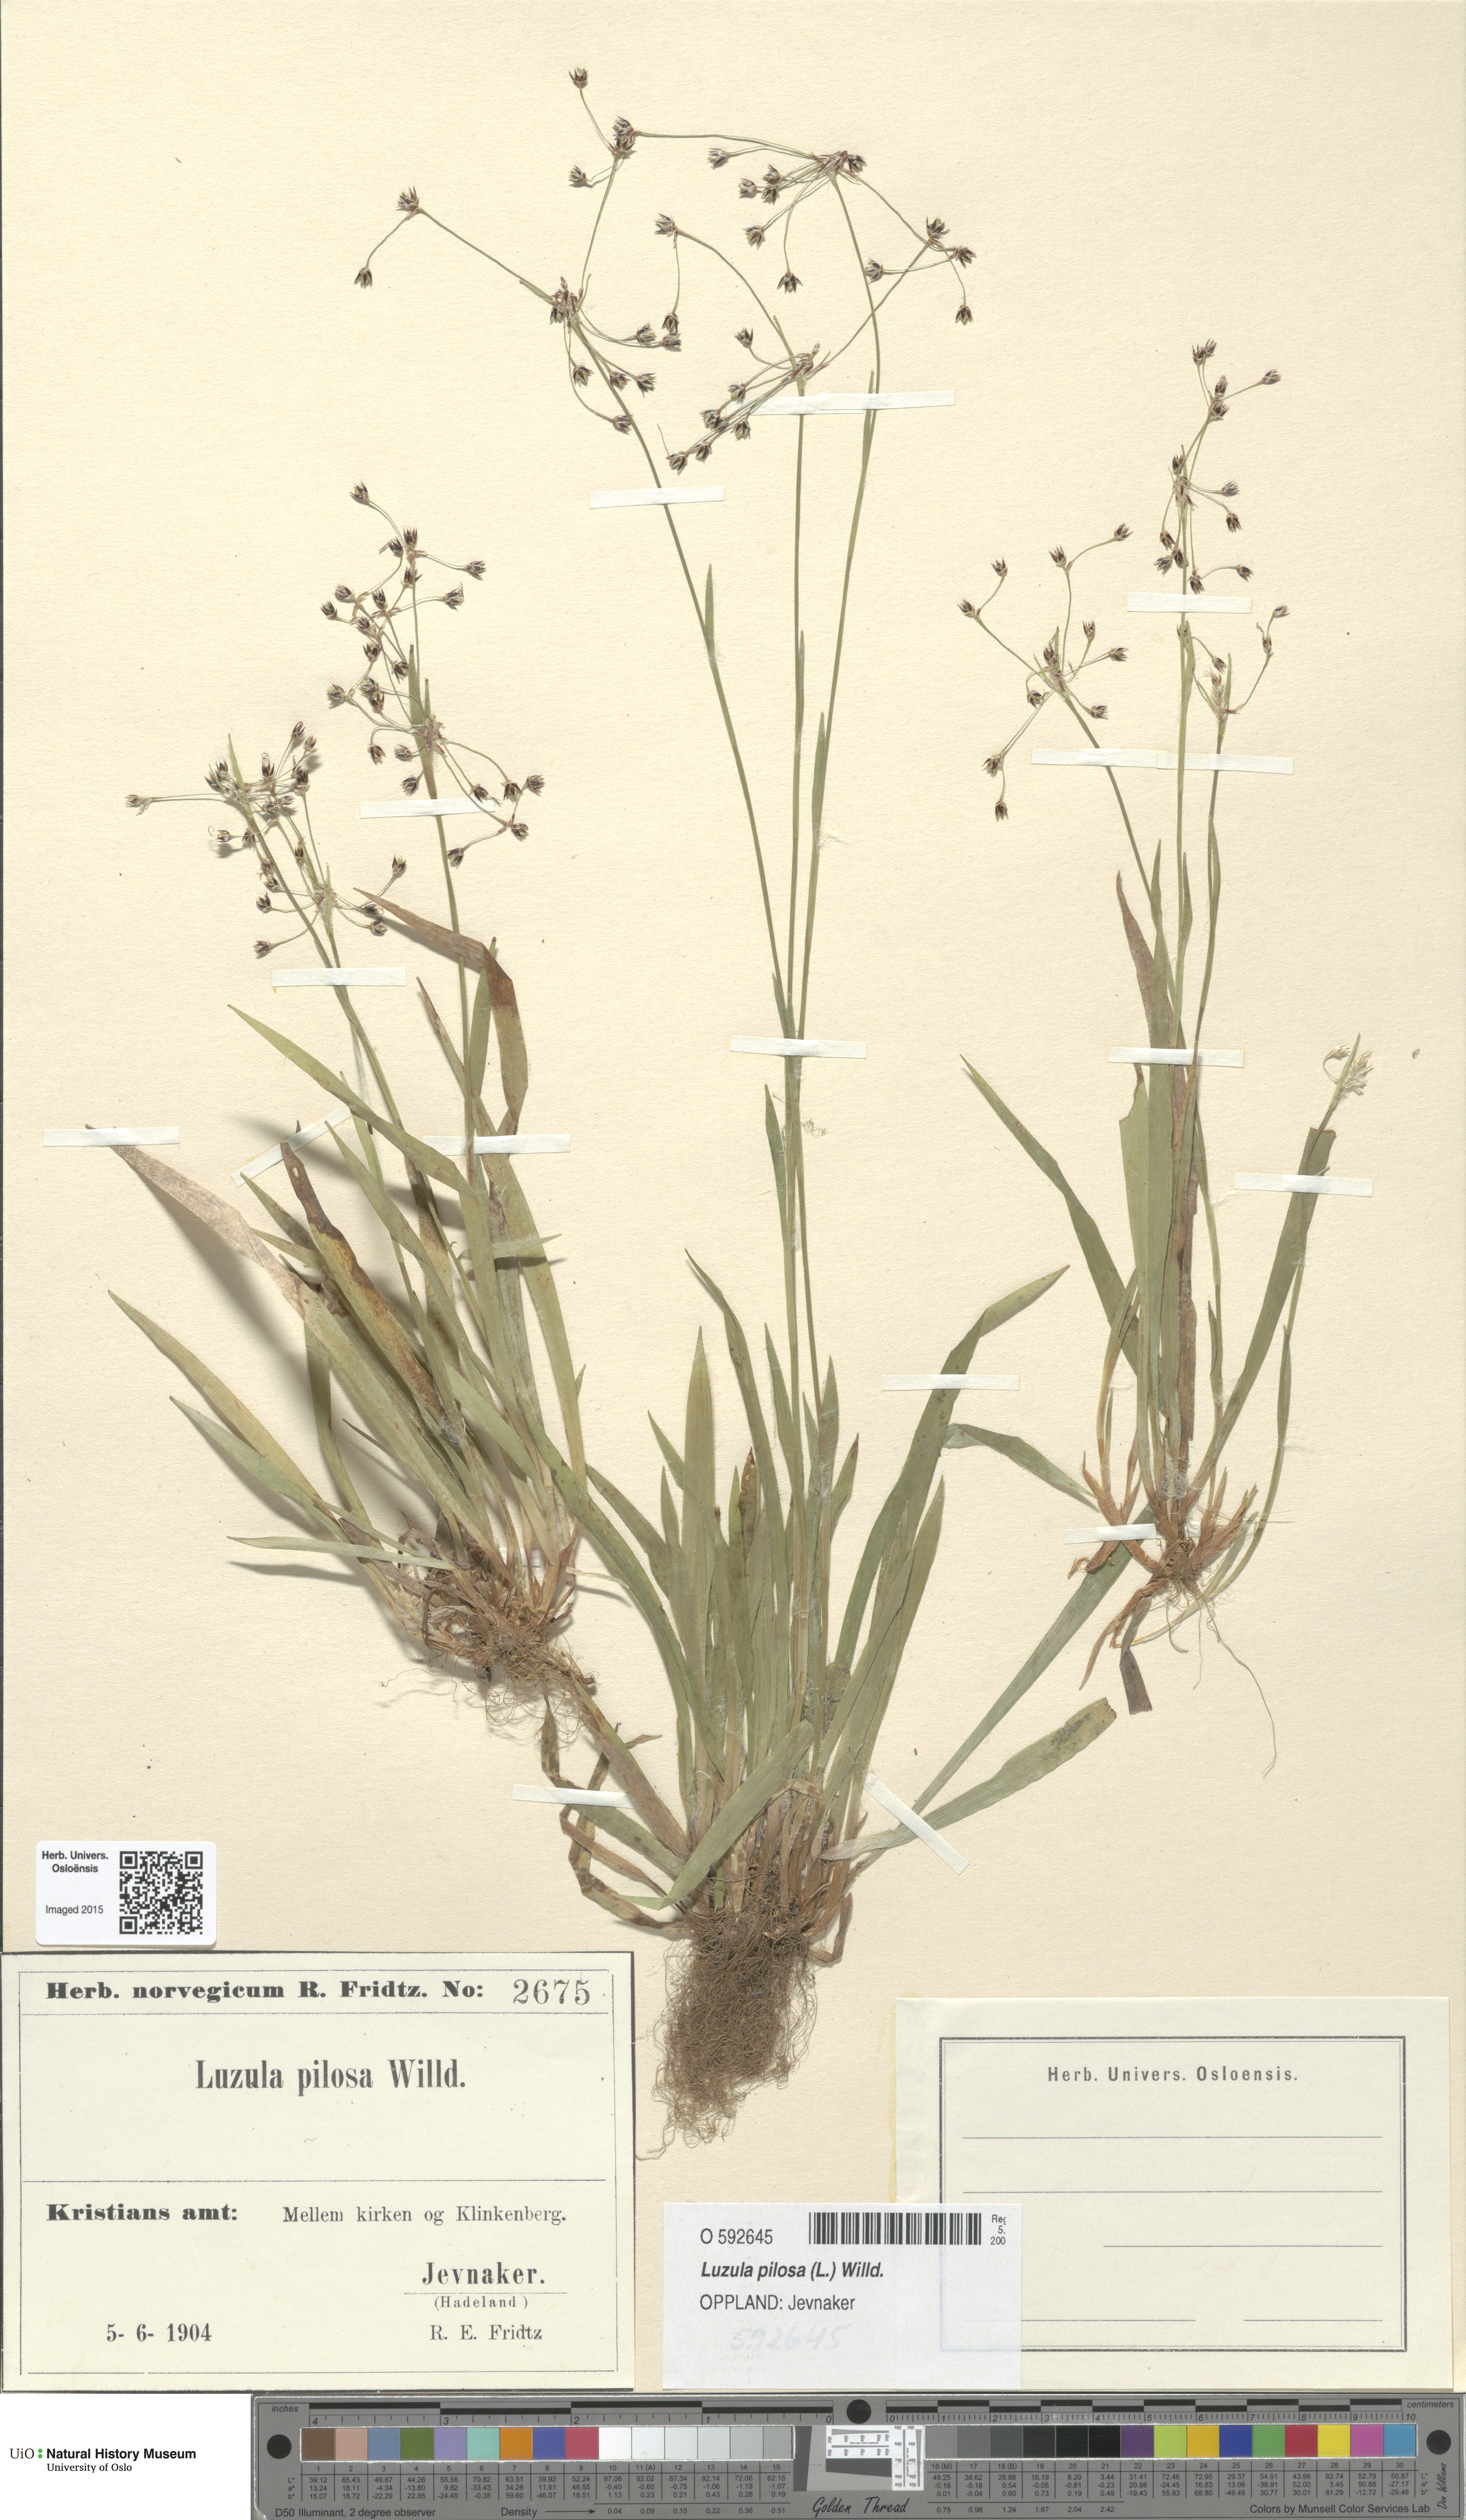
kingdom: Plantae
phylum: Tracheophyta
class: Liliopsida
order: Poales
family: Juncaceae
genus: Luzula
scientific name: Luzula pilosa
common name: Hairy wood-rush
